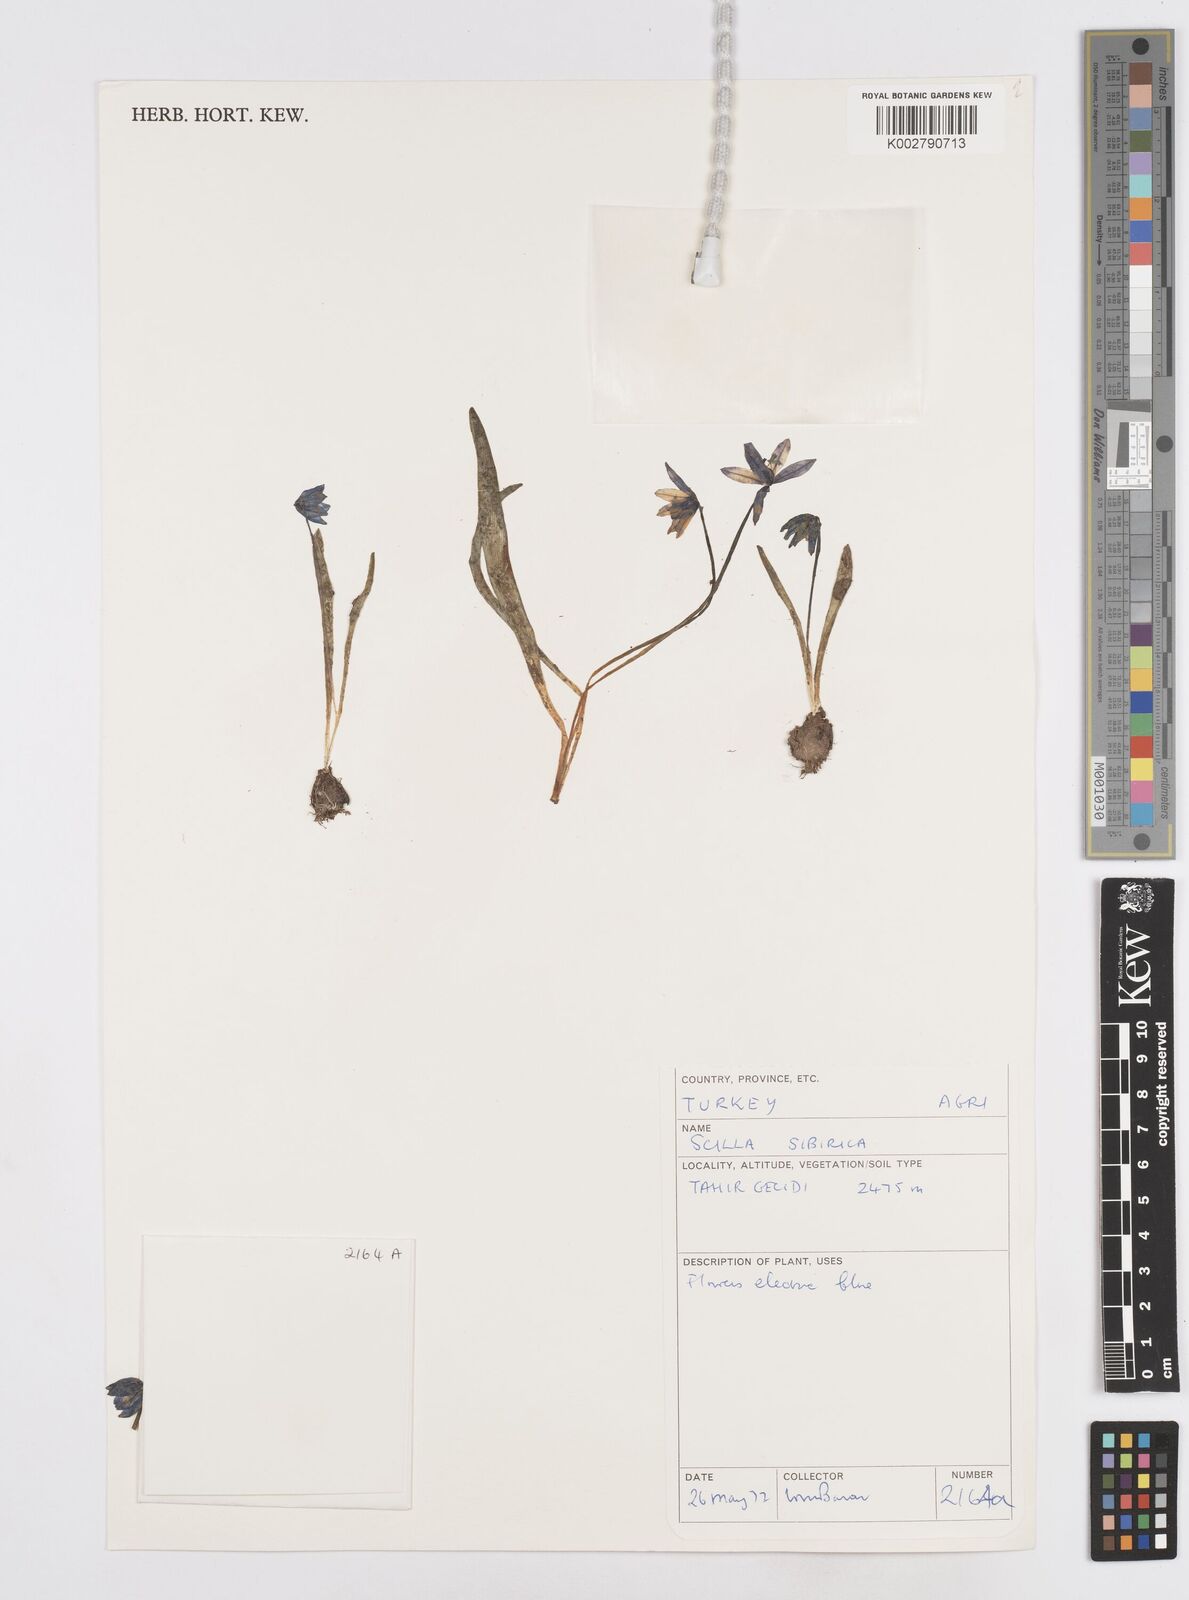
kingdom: Plantae
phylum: Tracheophyta
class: Liliopsida
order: Asparagales
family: Asparagaceae
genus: Scilla
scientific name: Scilla siberica
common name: Siberian squill
